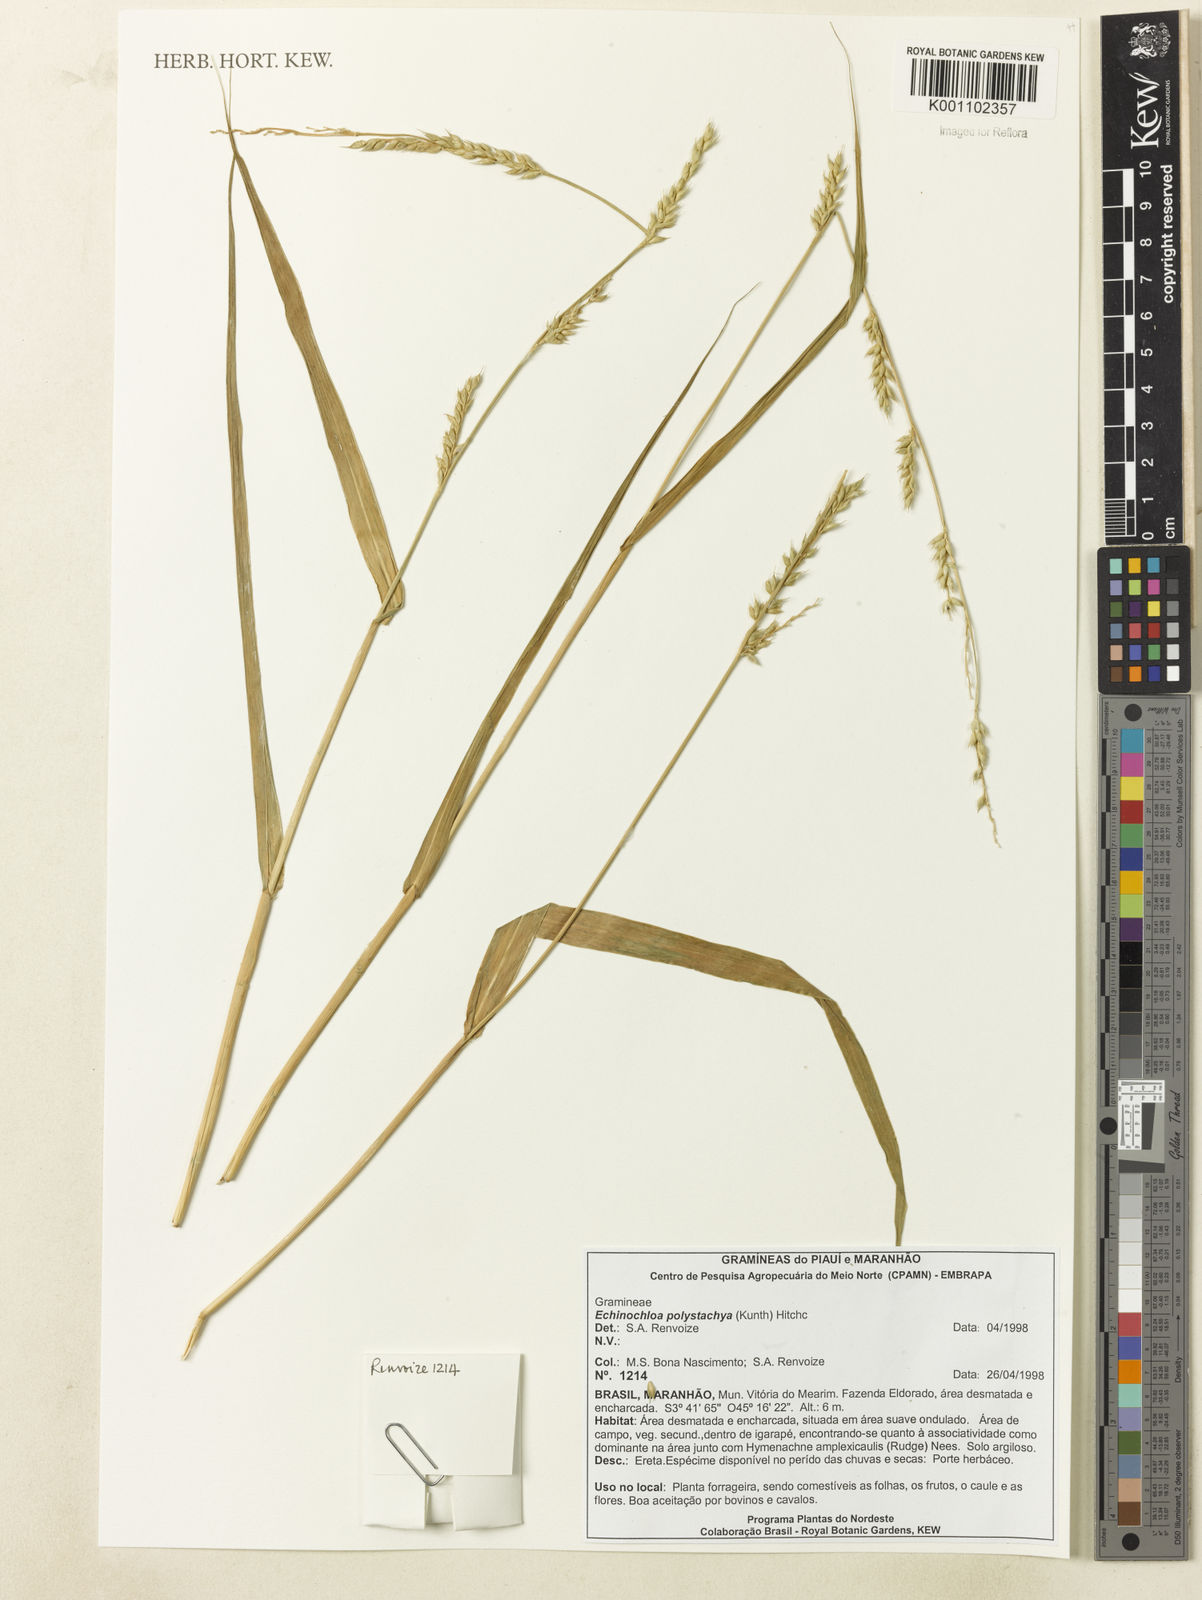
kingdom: Plantae
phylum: Tracheophyta
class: Liliopsida
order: Poales
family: Poaceae
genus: Echinochloa
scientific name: Echinochloa polystachya
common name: Creeping river grass
